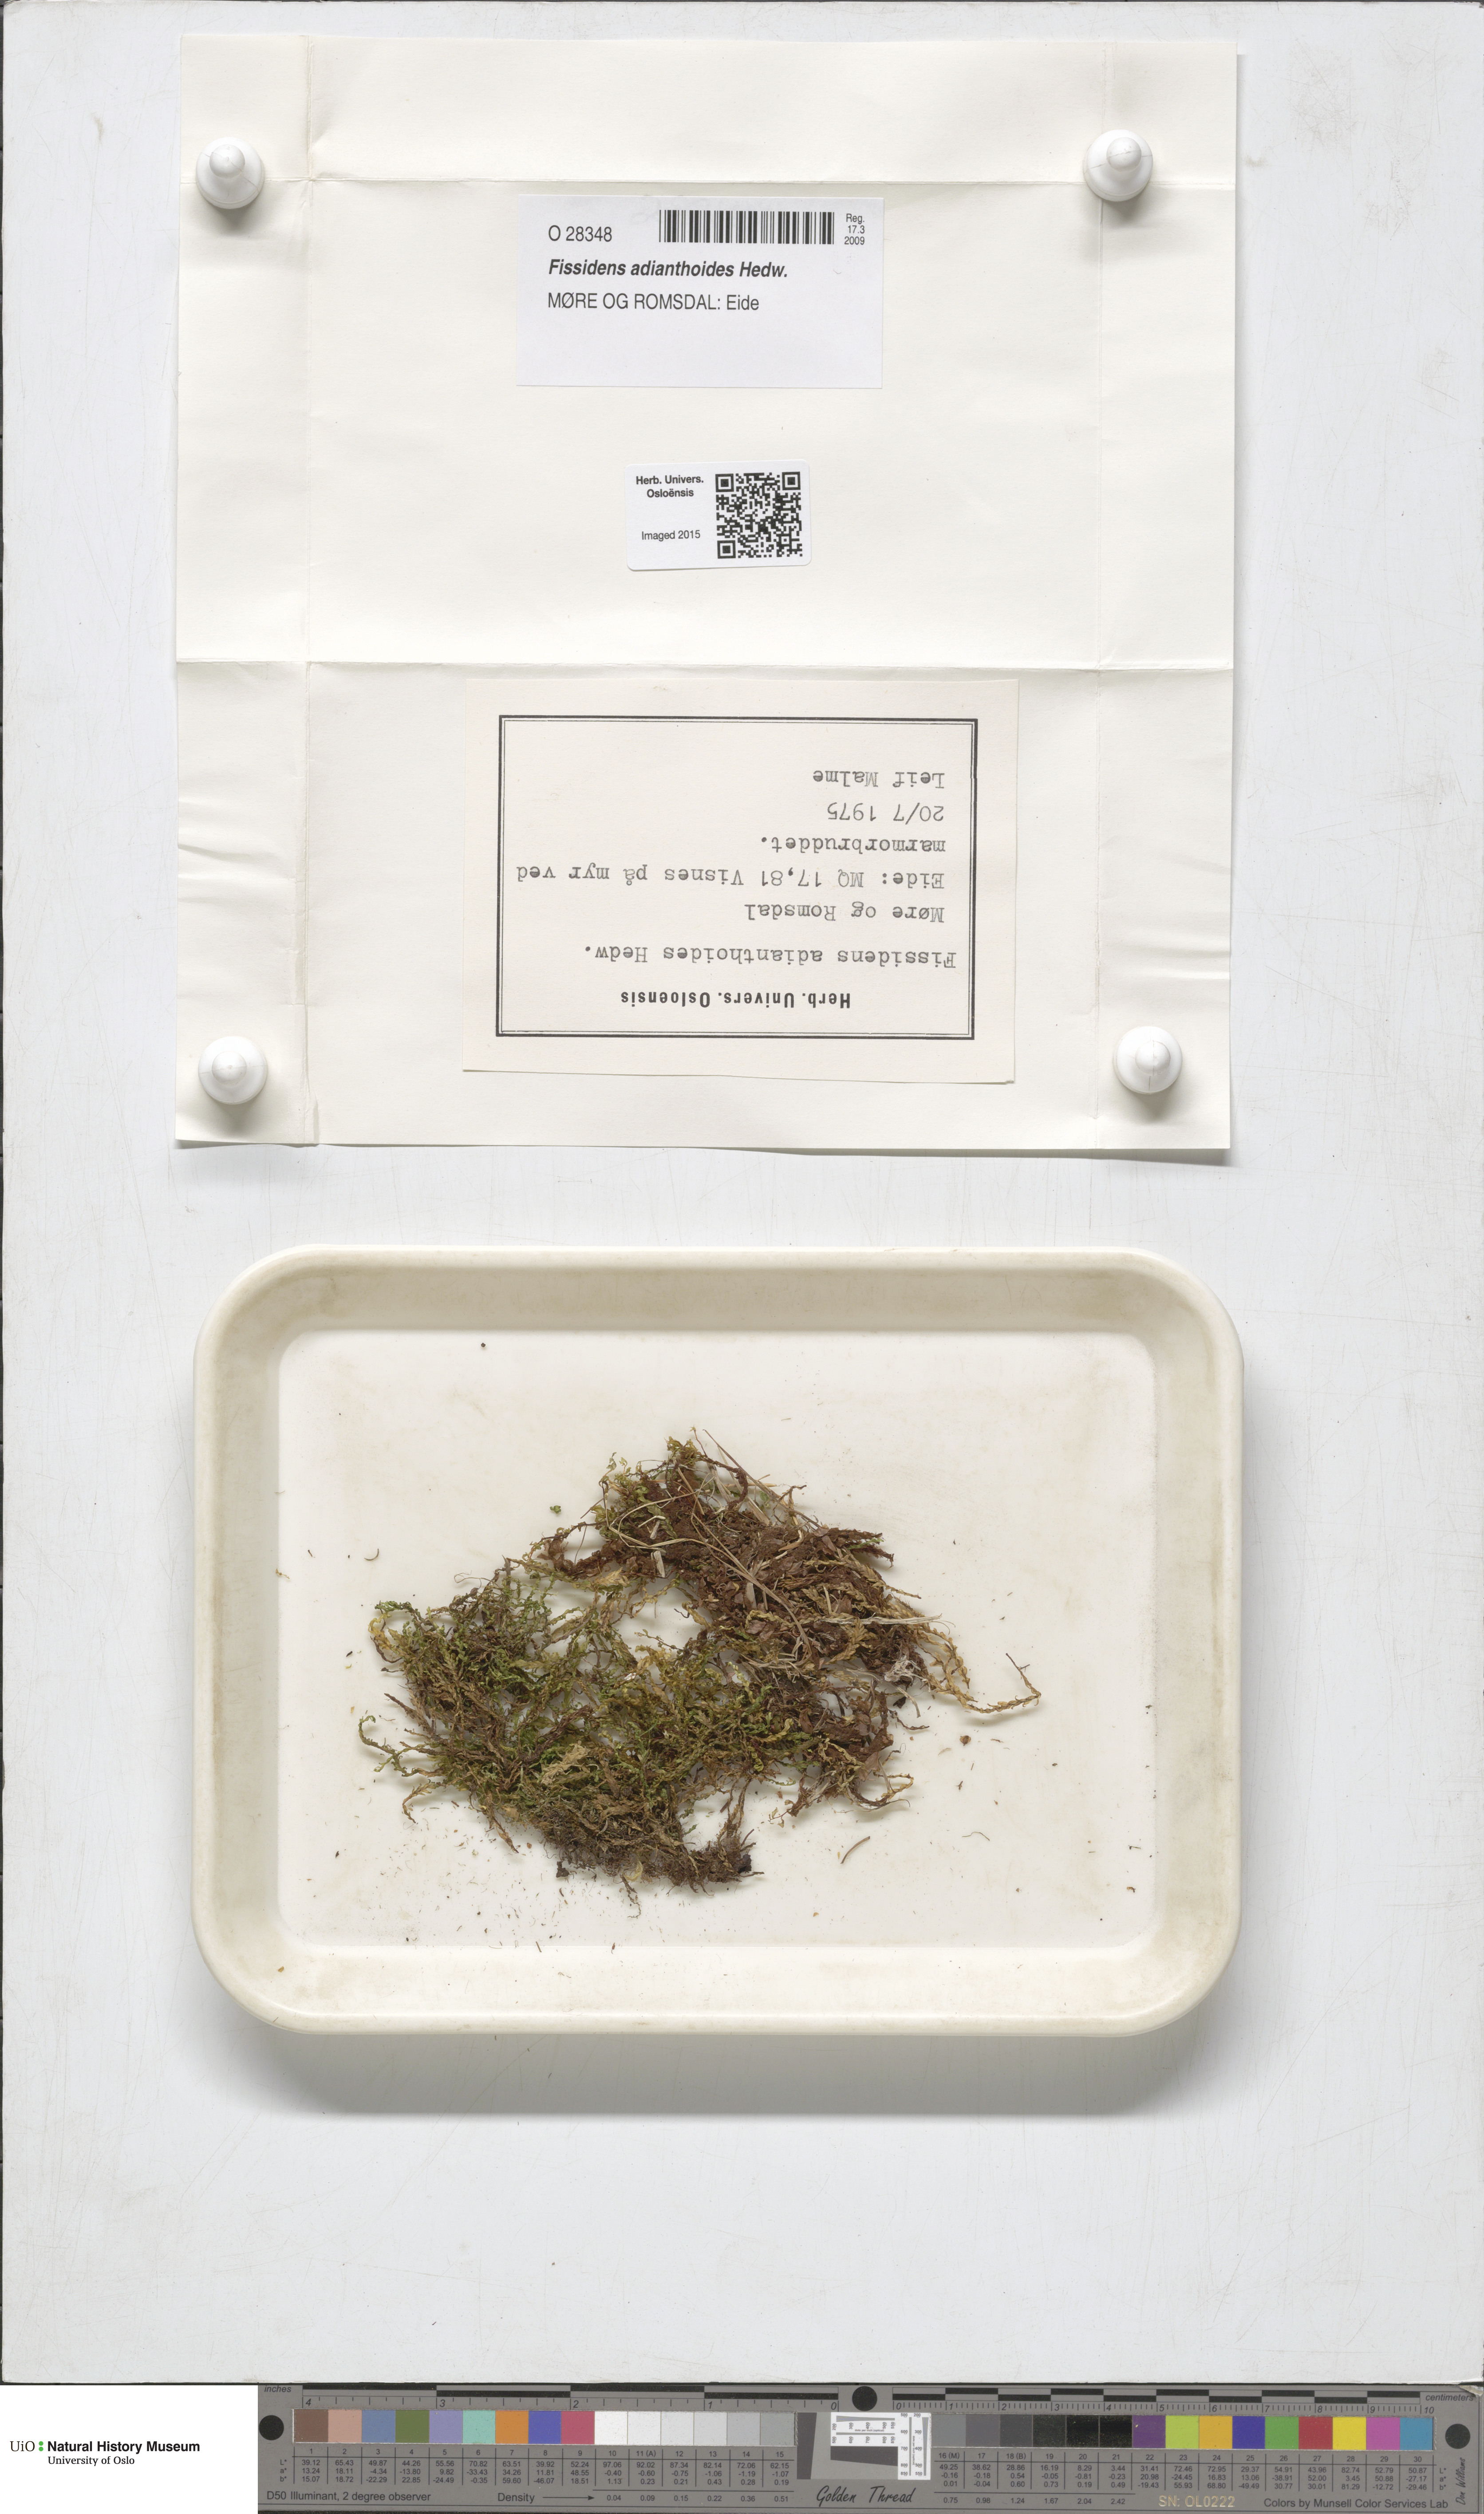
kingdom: Plantae
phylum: Bryophyta
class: Bryopsida
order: Dicranales
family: Fissidentaceae
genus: Fissidens
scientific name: Fissidens adianthoides
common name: Maidenhair pocket moss
